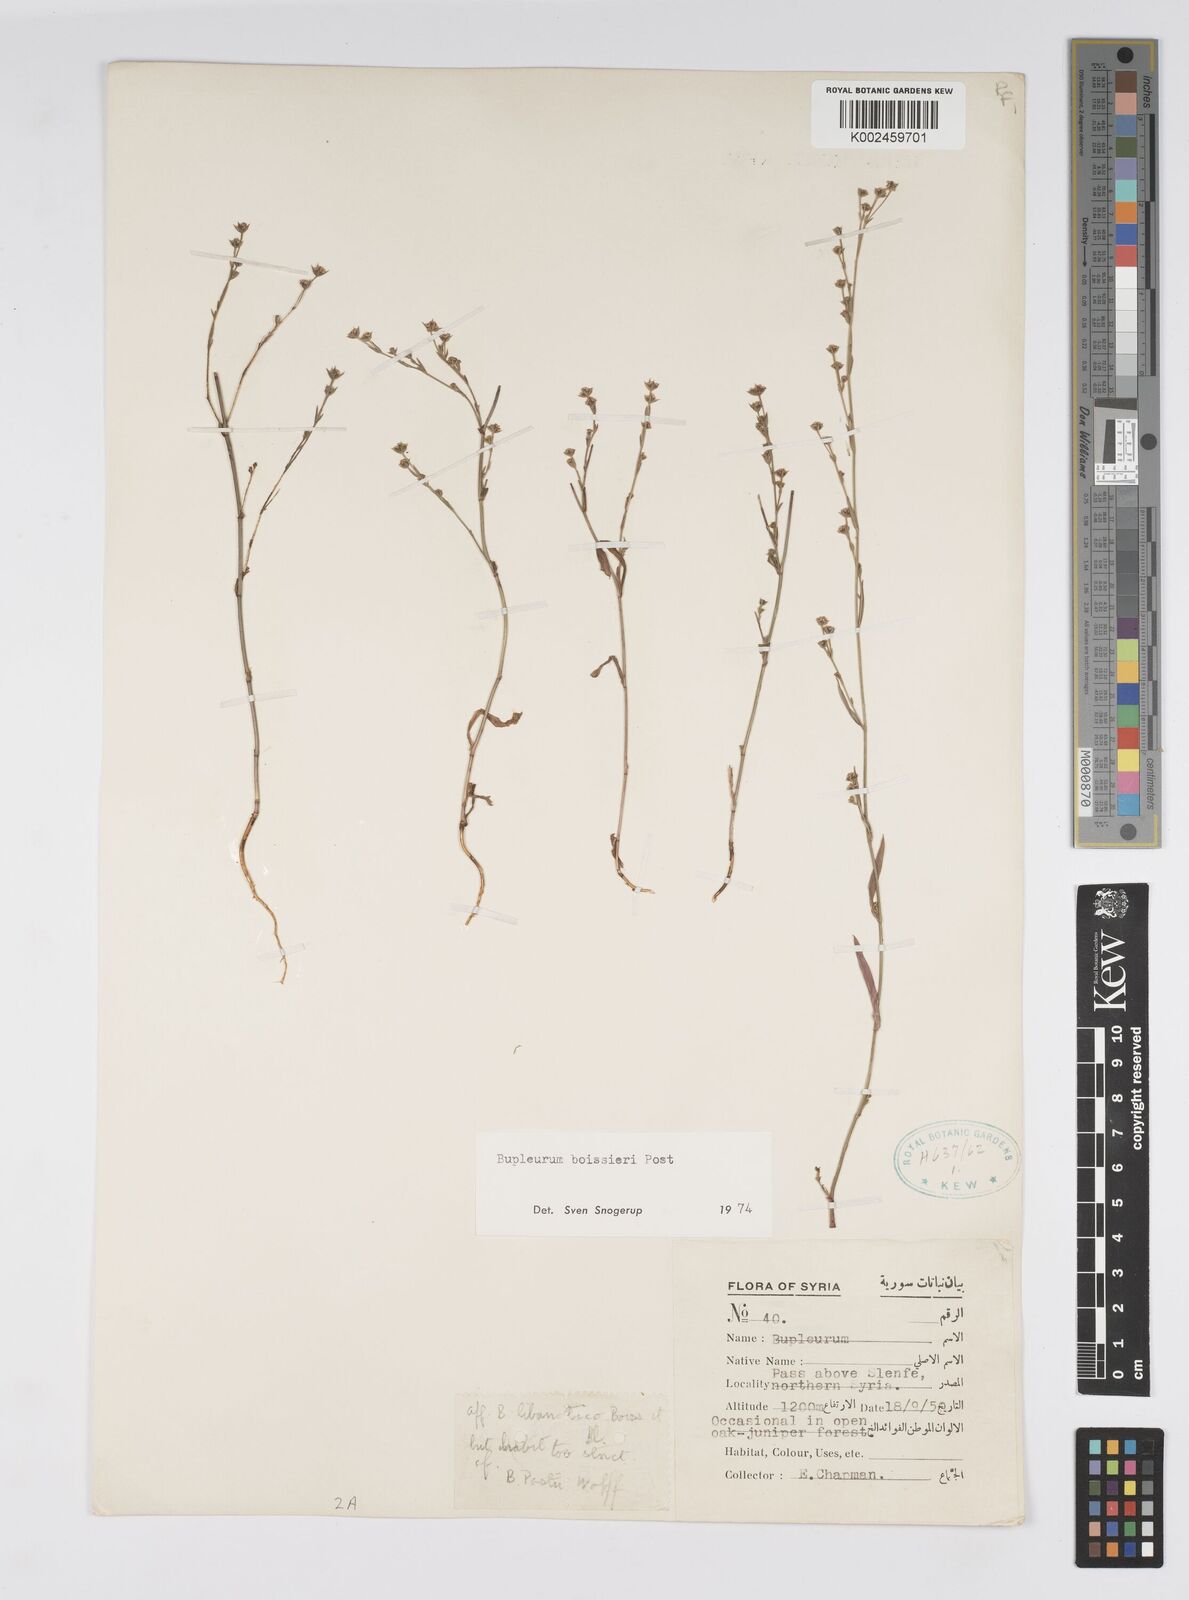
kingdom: Plantae
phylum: Tracheophyta
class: Magnoliopsida
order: Apiales
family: Apiaceae
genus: Bupleurum
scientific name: Bupleurum boissieri
